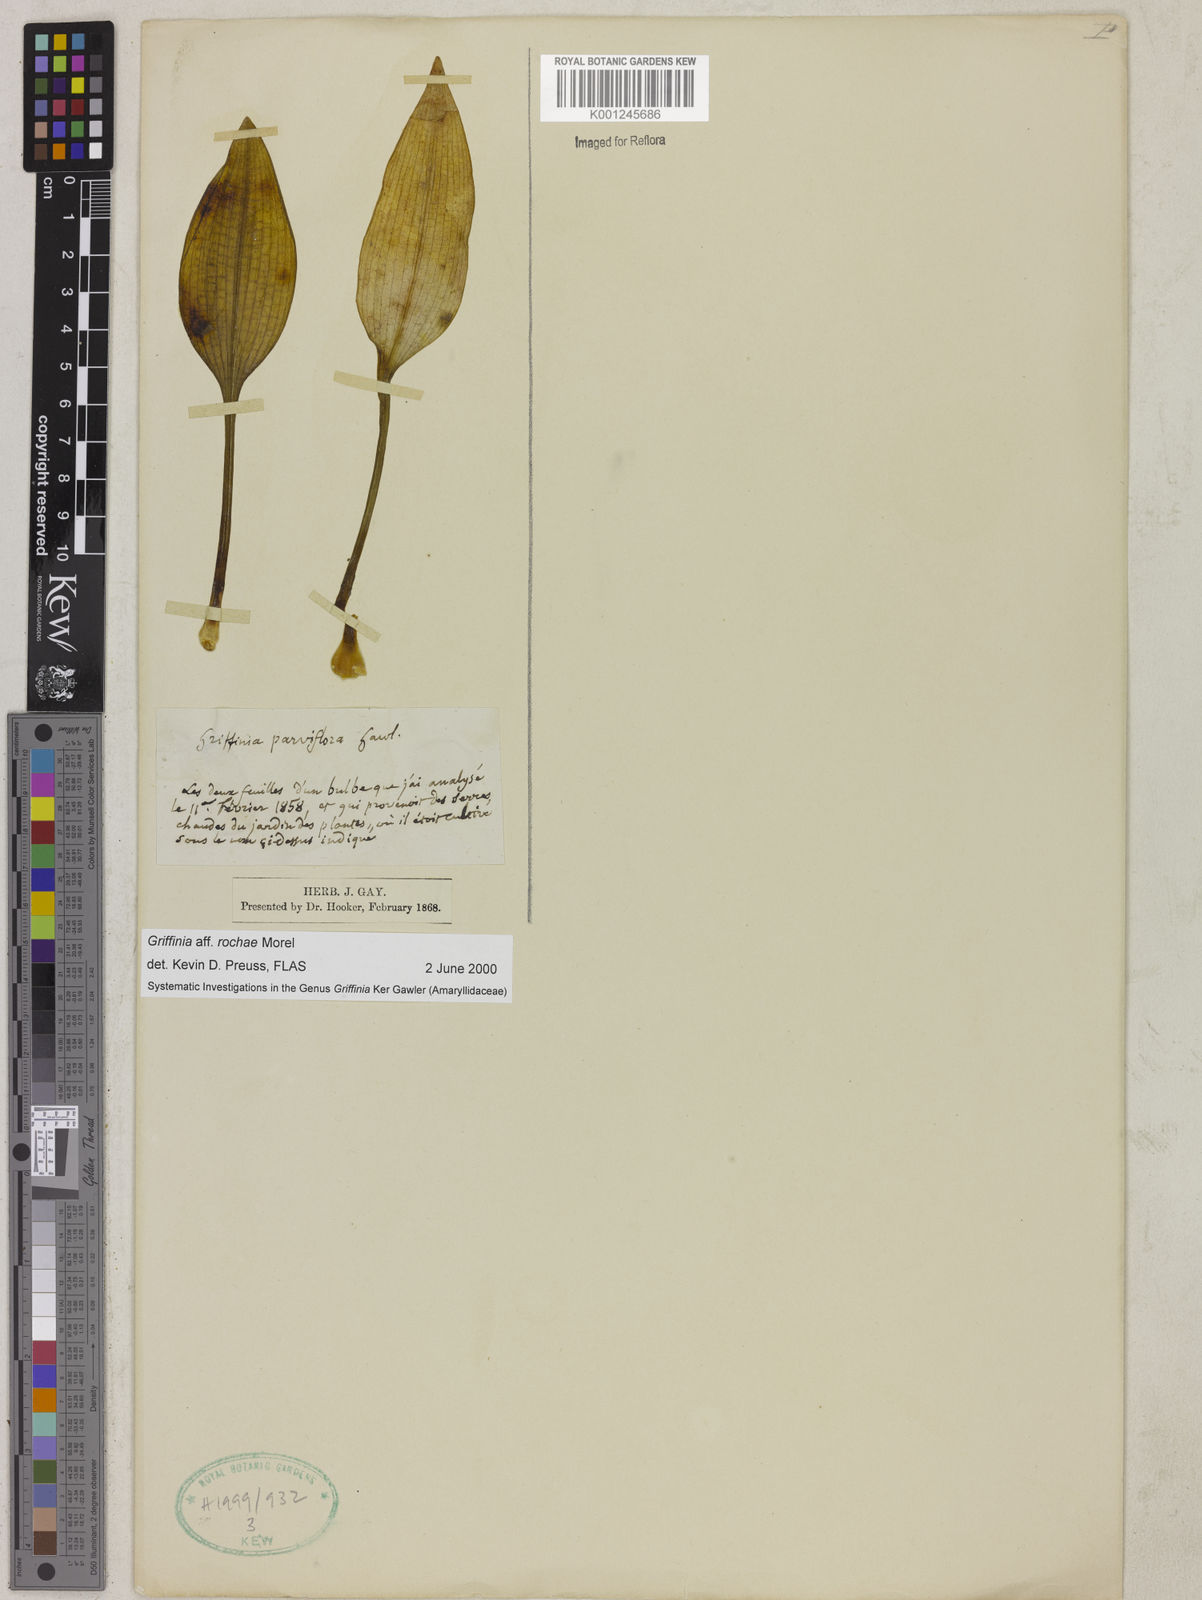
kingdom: Plantae
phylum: Tracheophyta
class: Liliopsida
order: Asparagales
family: Amaryllidaceae
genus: Griffinia
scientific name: Griffinia rochae
